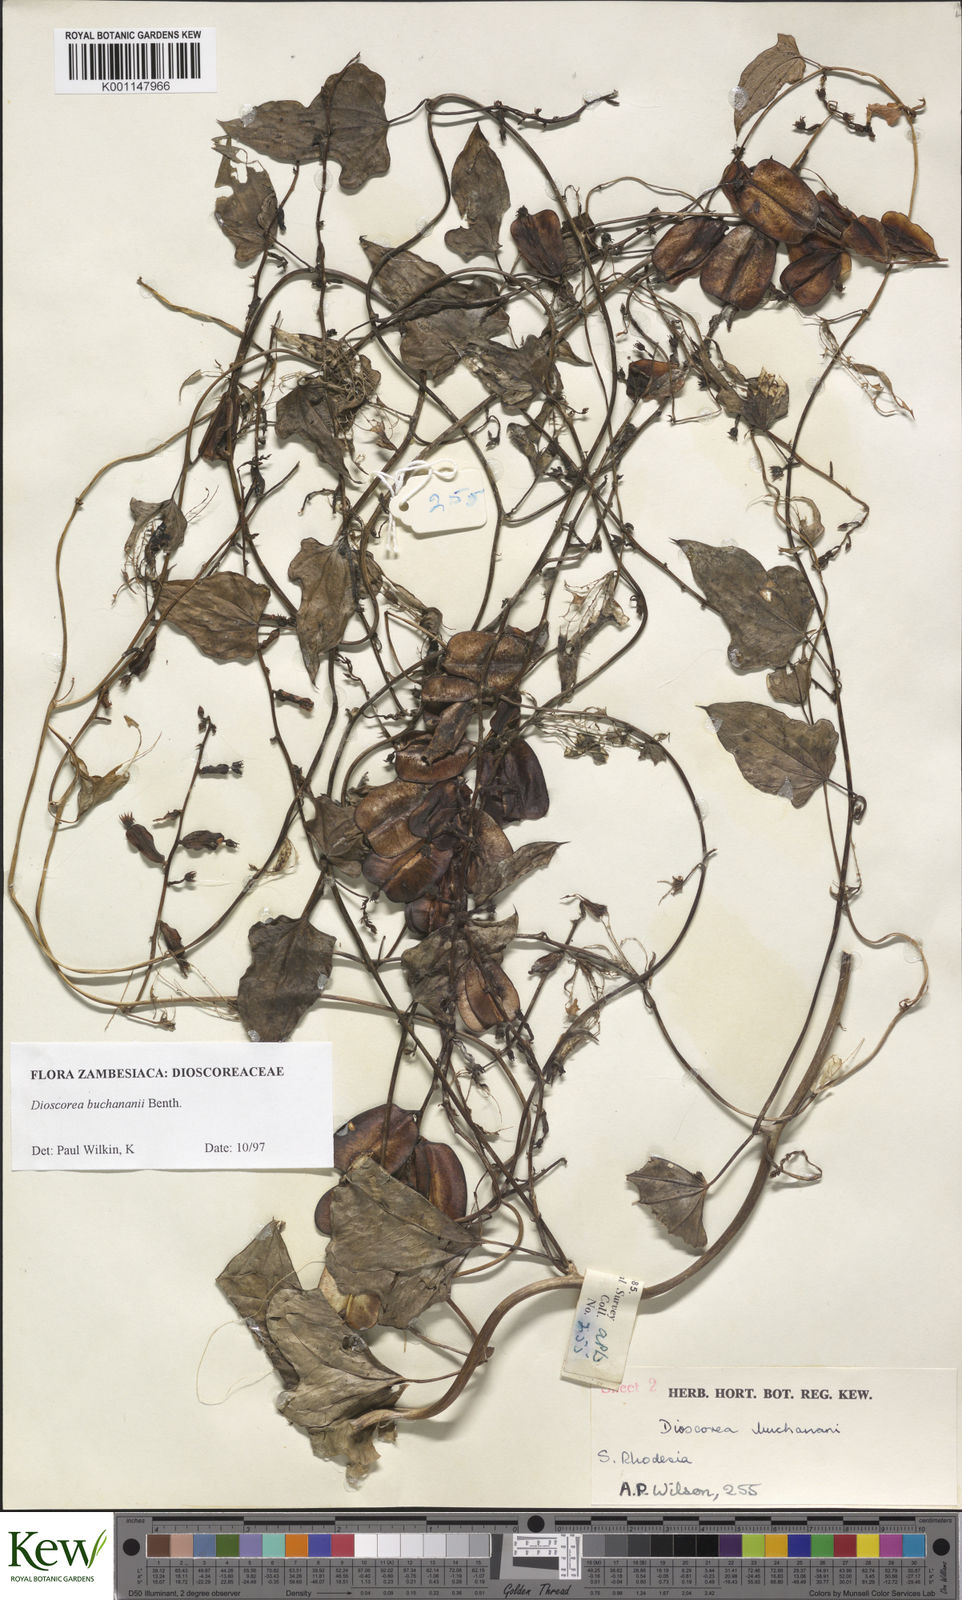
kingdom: Plantae
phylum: Tracheophyta
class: Liliopsida
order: Dioscoreales
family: Dioscoreaceae
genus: Dioscorea
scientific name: Dioscorea buchananii
